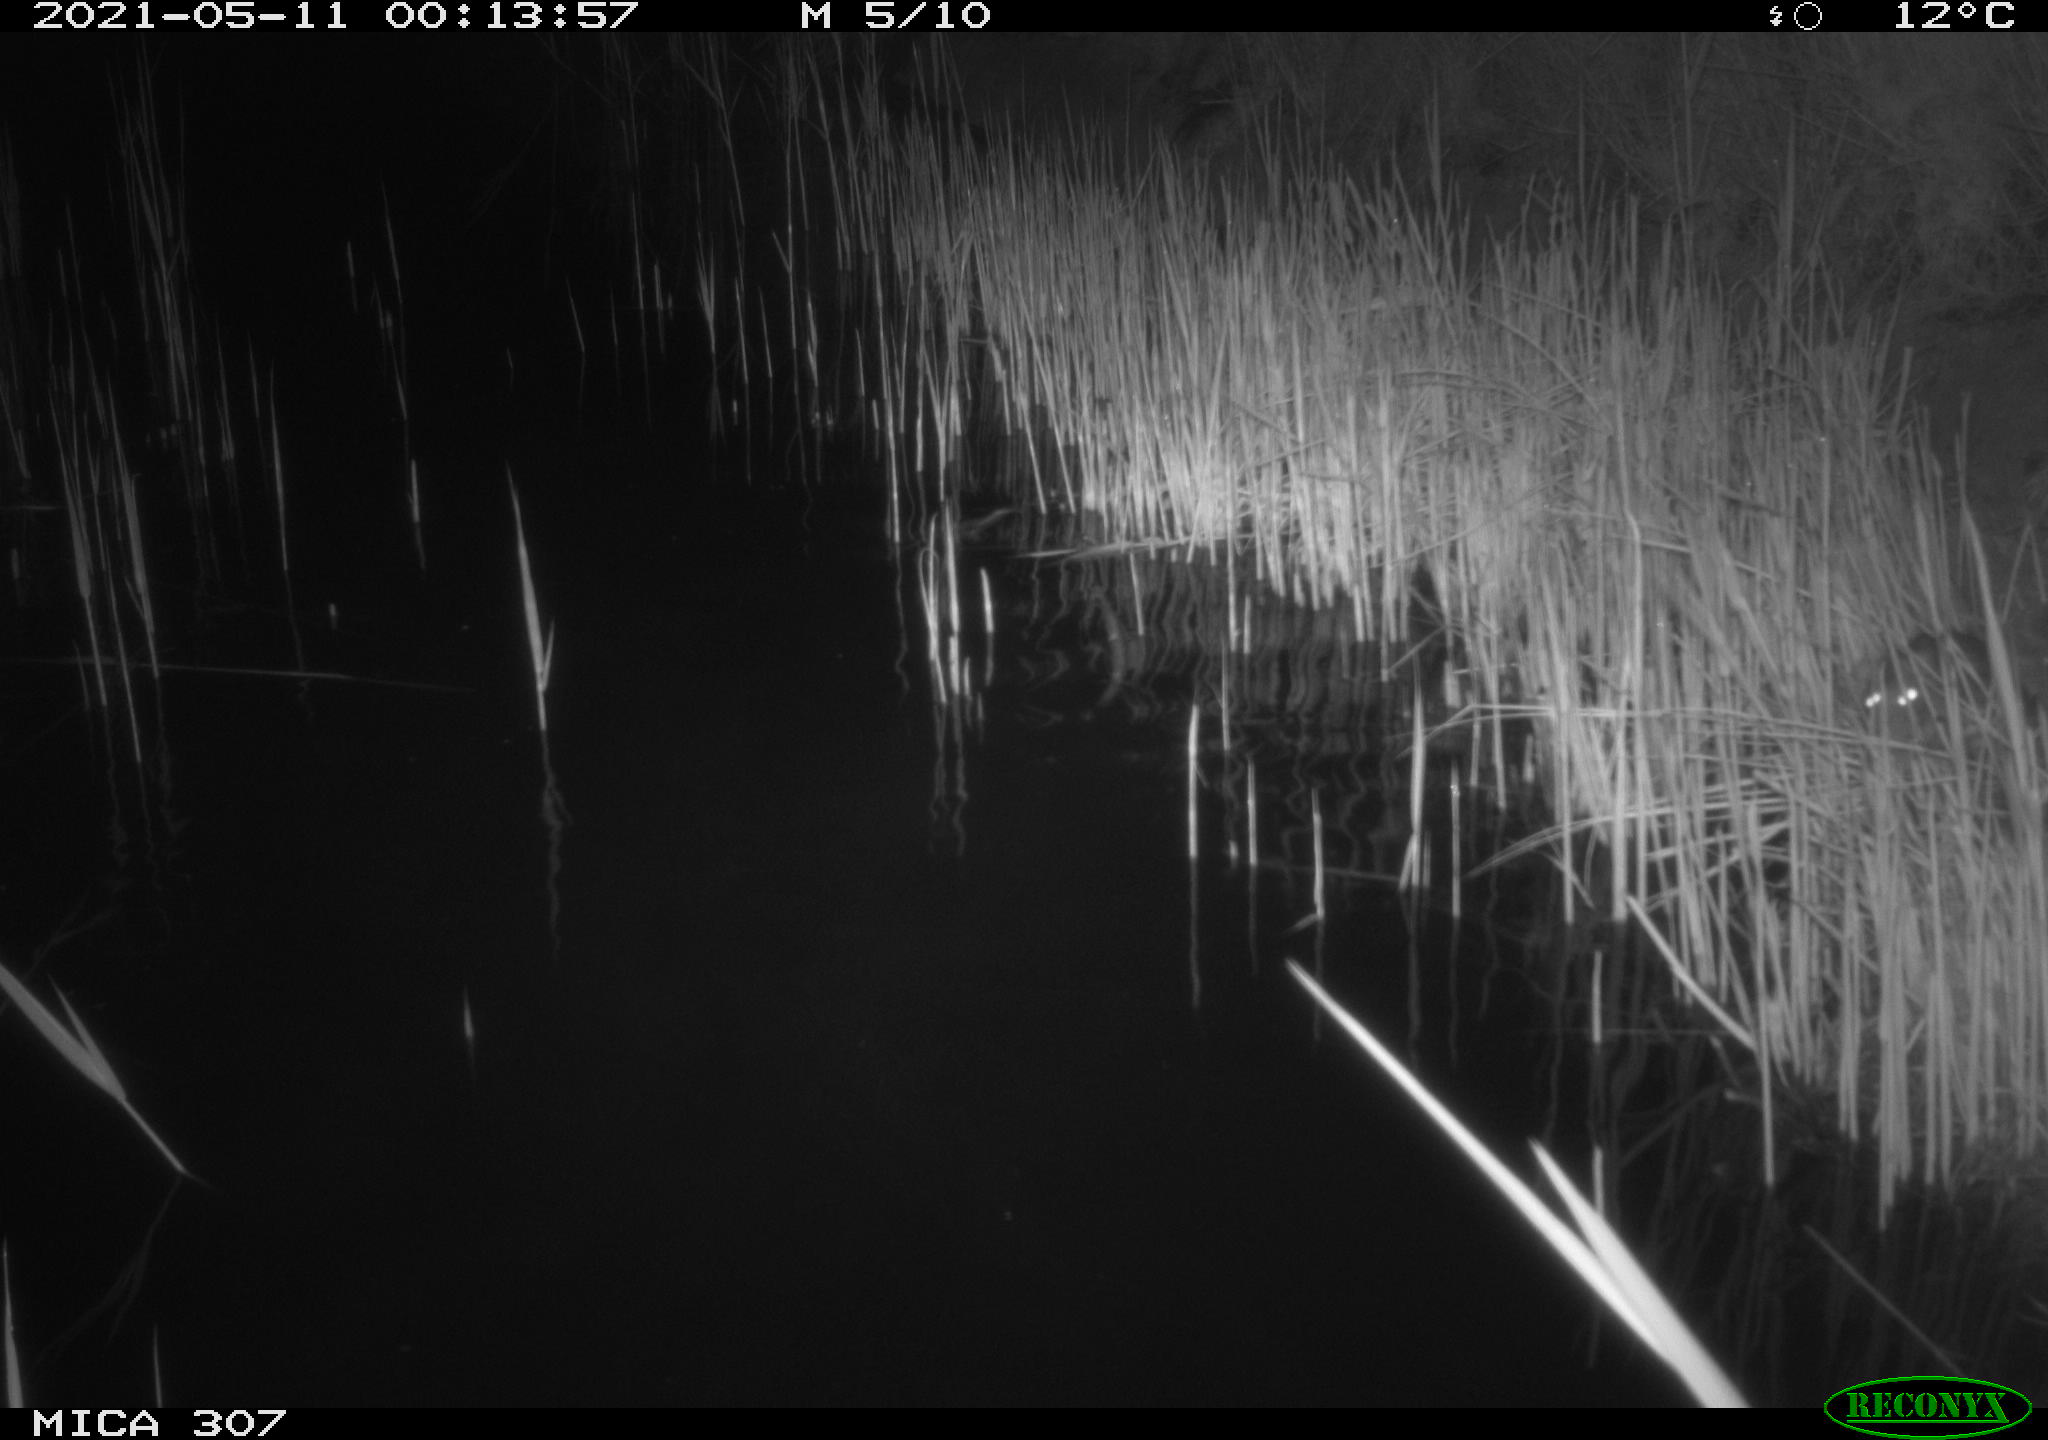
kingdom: Animalia
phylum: Chordata
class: Mammalia
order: Rodentia
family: Muridae
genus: Rattus
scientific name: Rattus norvegicus
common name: Brown rat
